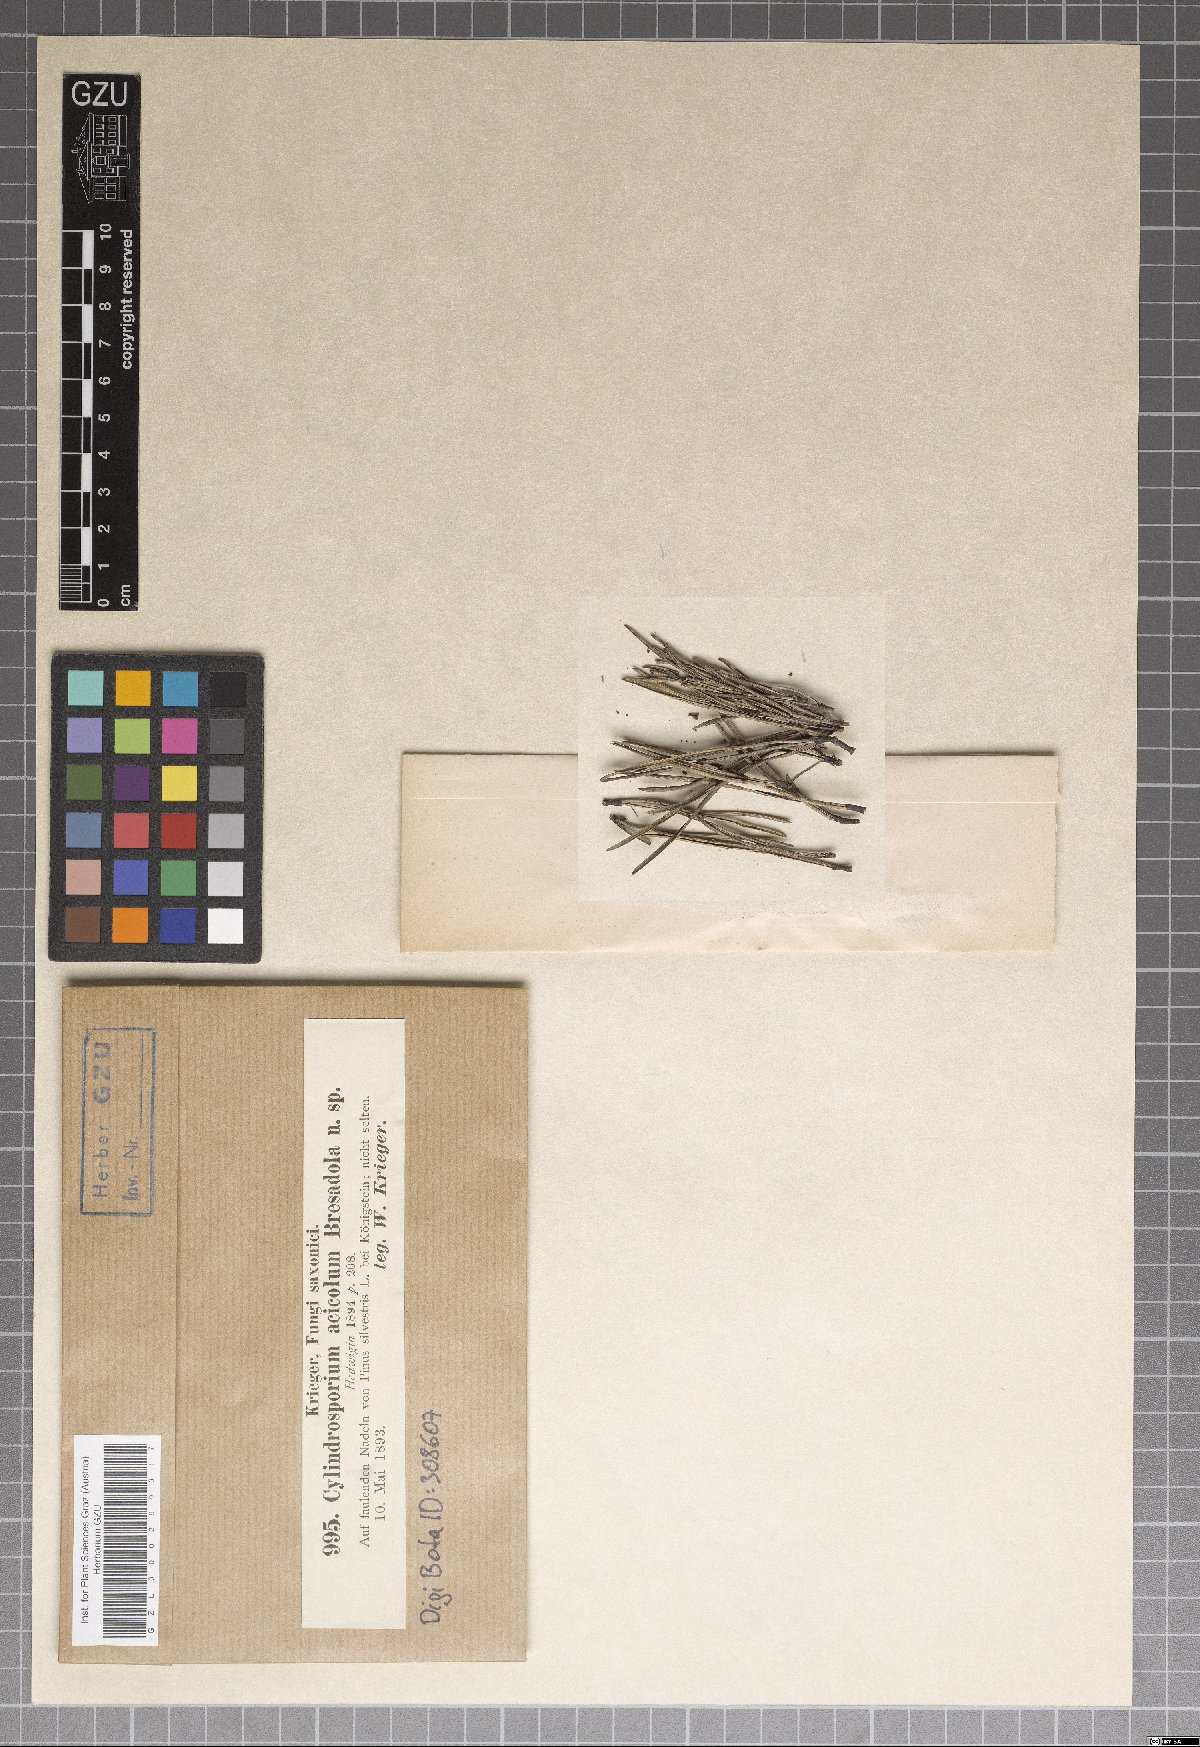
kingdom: Fungi
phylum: Ascomycota
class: Leotiomycetes
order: Helotiales
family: Ploettnerulaceae
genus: Cylindrosporium
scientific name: Cylindrosporium
